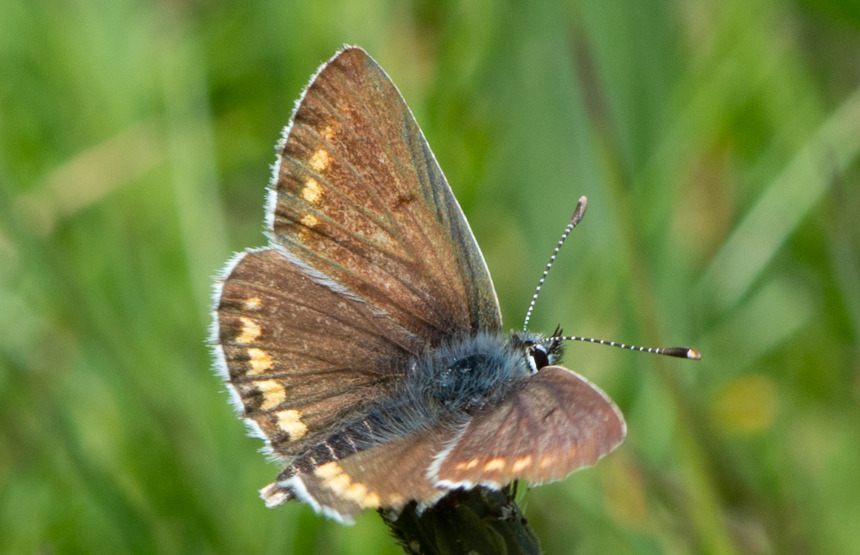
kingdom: Animalia
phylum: Arthropoda
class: Insecta
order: Lepidoptera
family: Lycaenidae
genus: Polyommatus
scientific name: Polyommatus icarus
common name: Almindelig blåfugl
